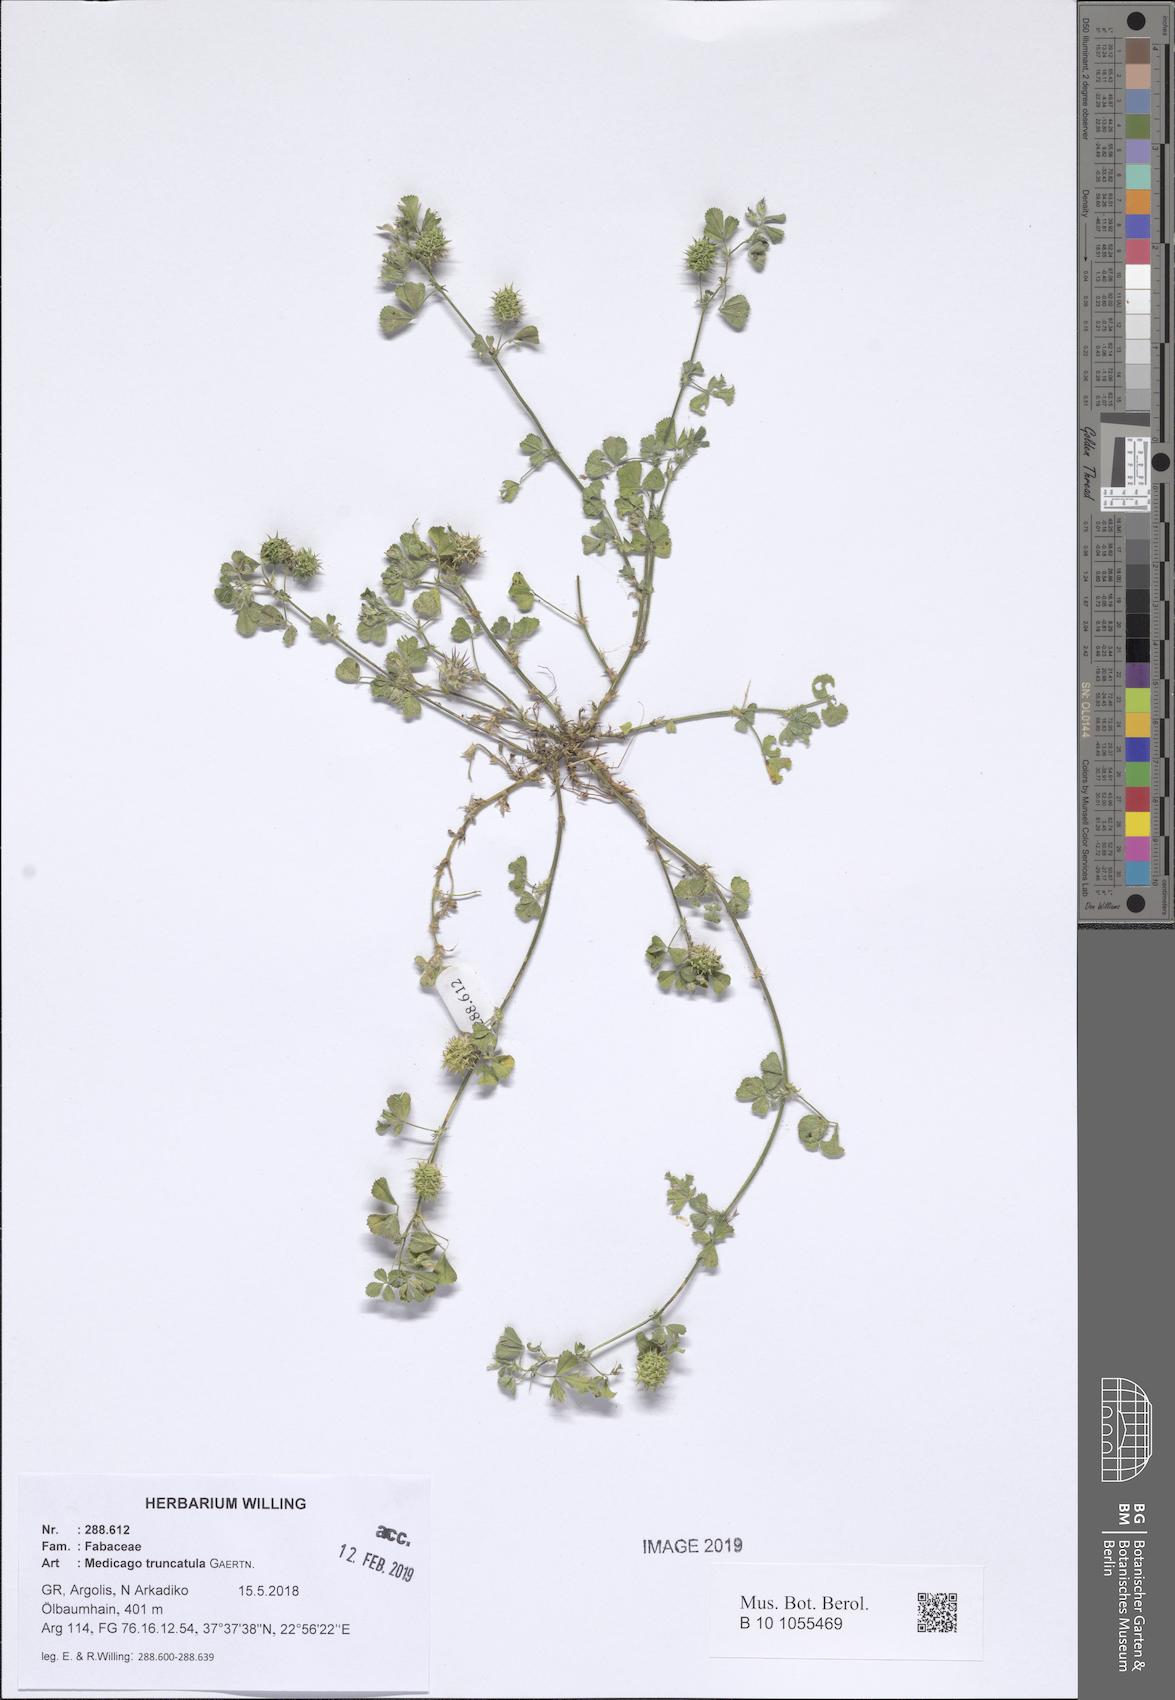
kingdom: Plantae
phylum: Tracheophyta
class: Magnoliopsida
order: Fabales
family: Fabaceae
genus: Medicago
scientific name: Medicago truncatula
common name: Strong-spined medick
